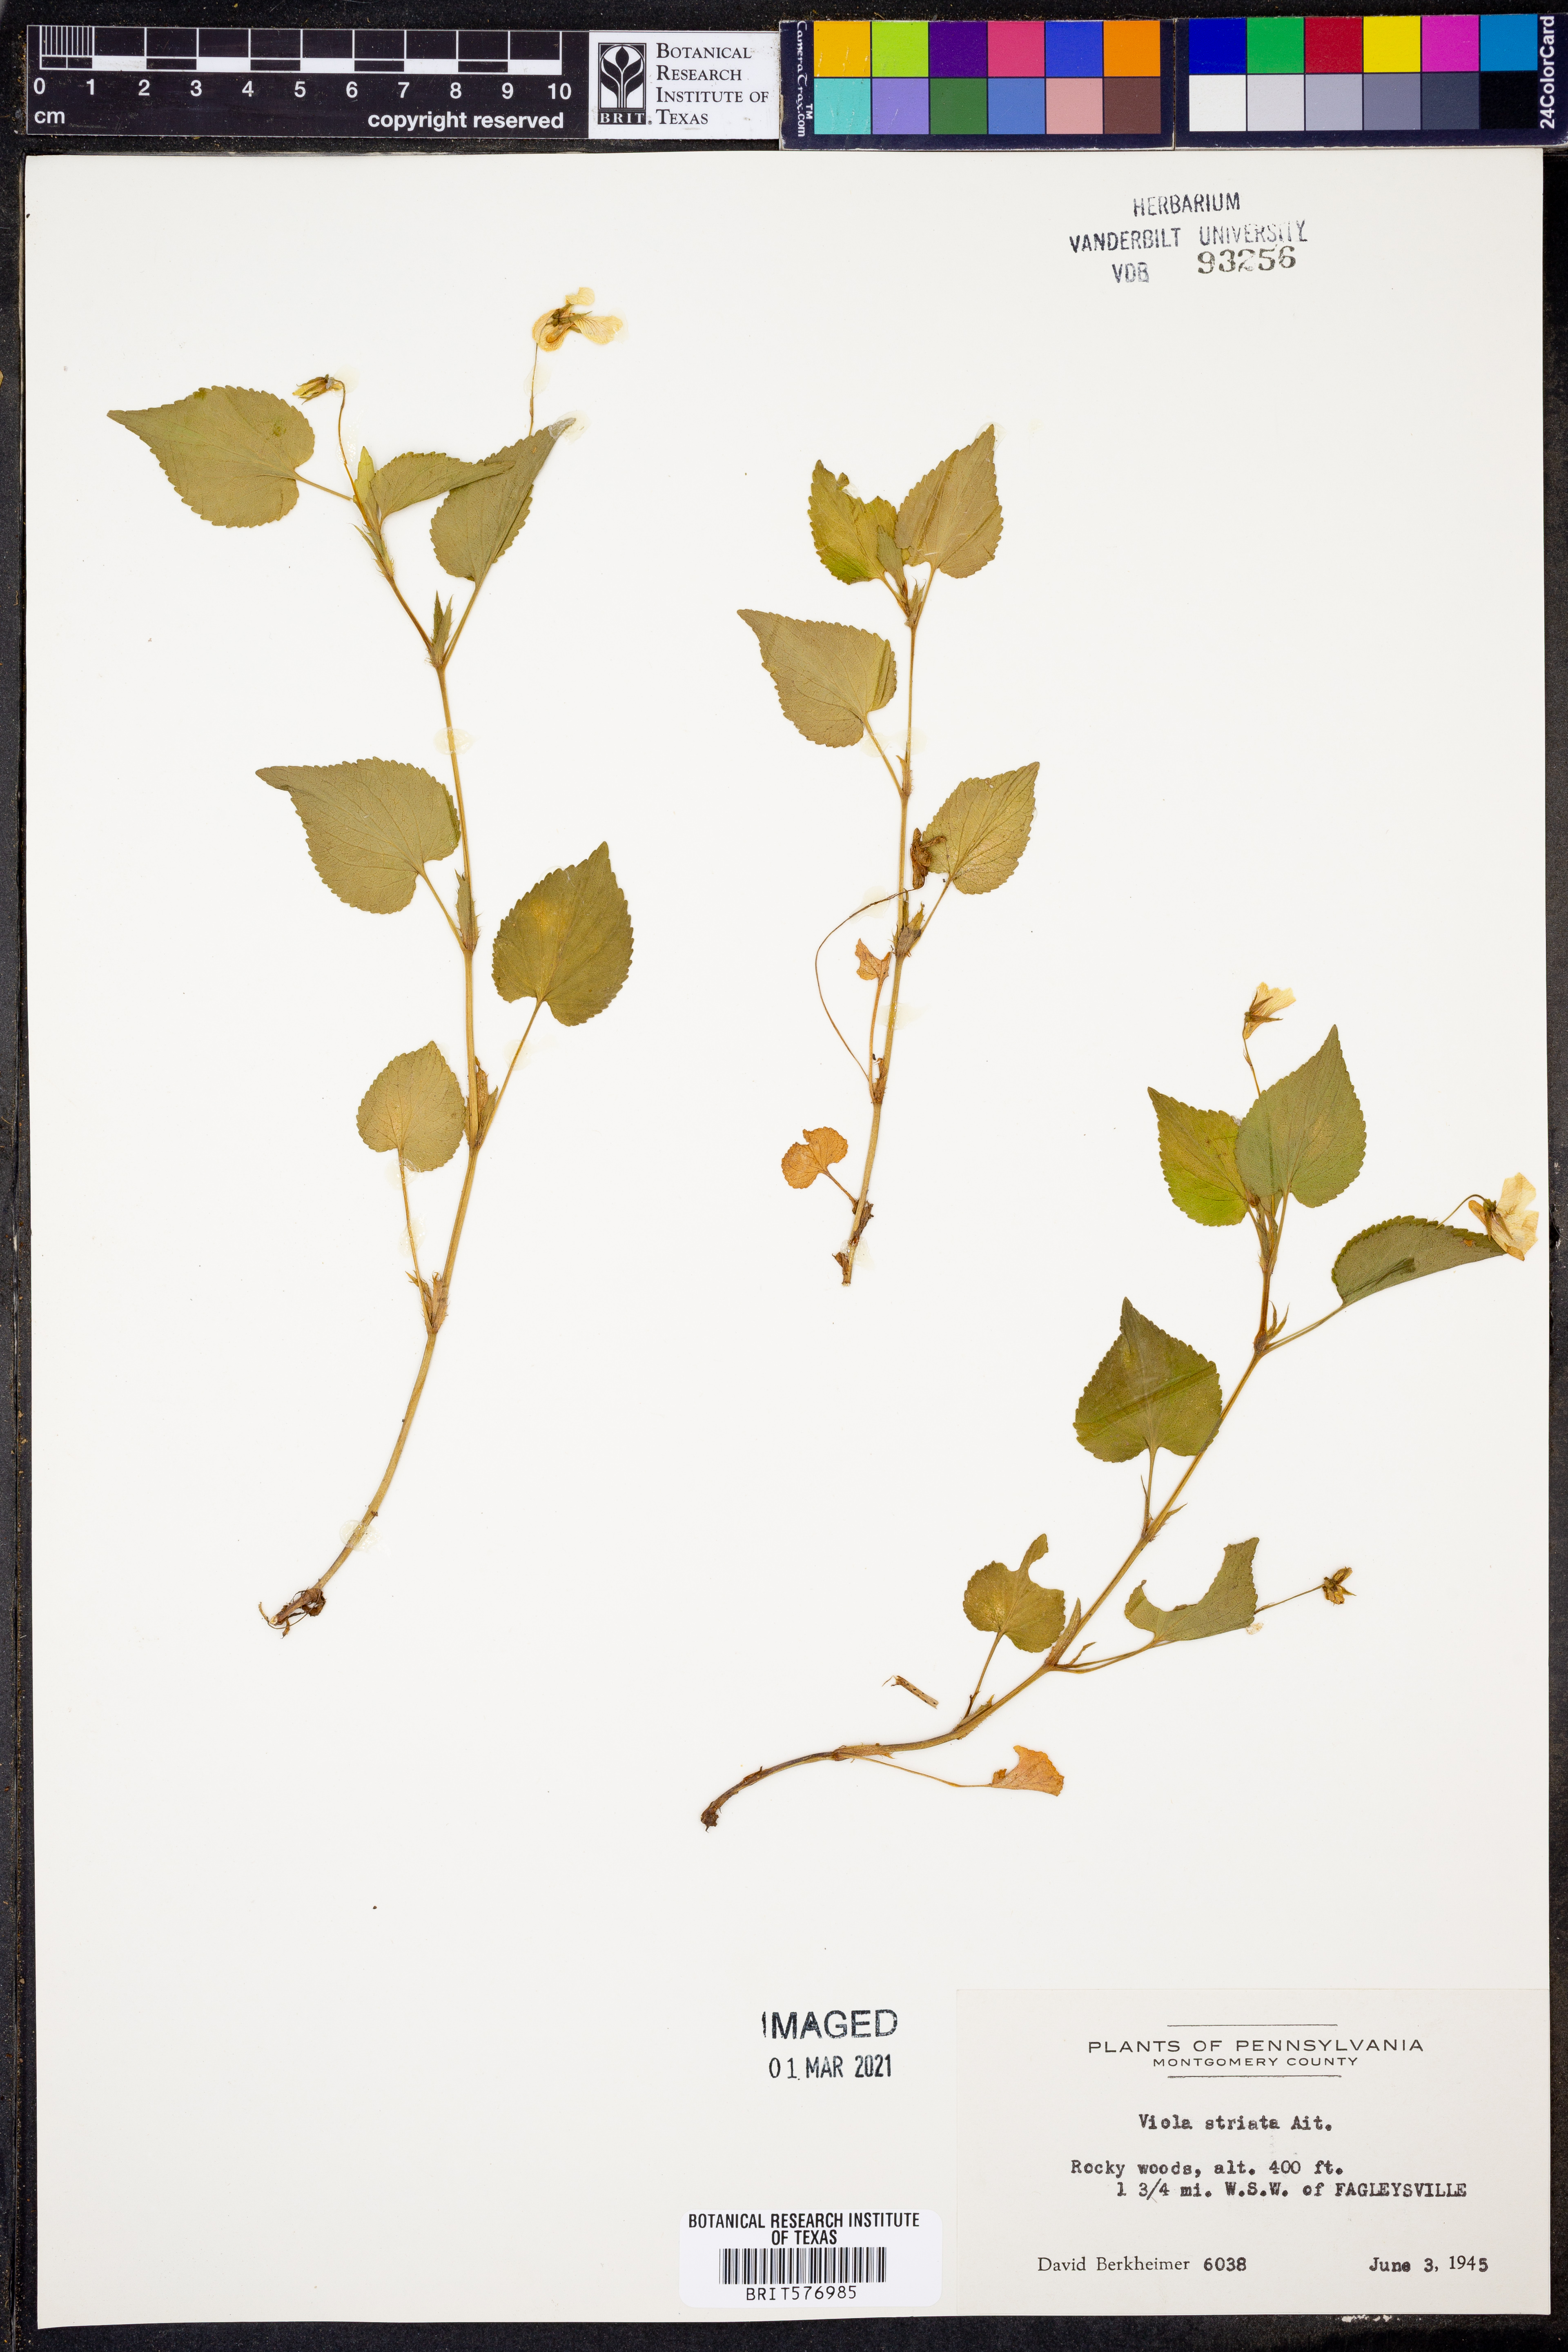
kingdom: Plantae
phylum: Tracheophyta
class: Magnoliopsida
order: Malpighiales
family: Violaceae
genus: Viola
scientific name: Viola striata
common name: Cream violet
